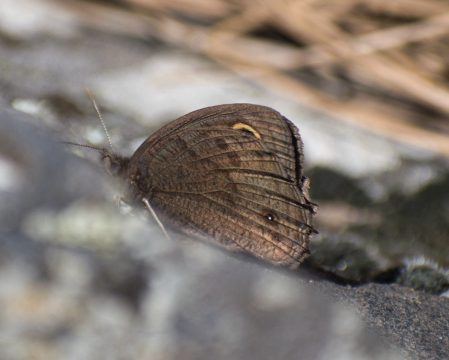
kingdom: Animalia
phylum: Arthropoda
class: Insecta
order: Lepidoptera
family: Nymphalidae
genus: Cercyonis
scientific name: Cercyonis pegala
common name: Common Wood-Nymph
